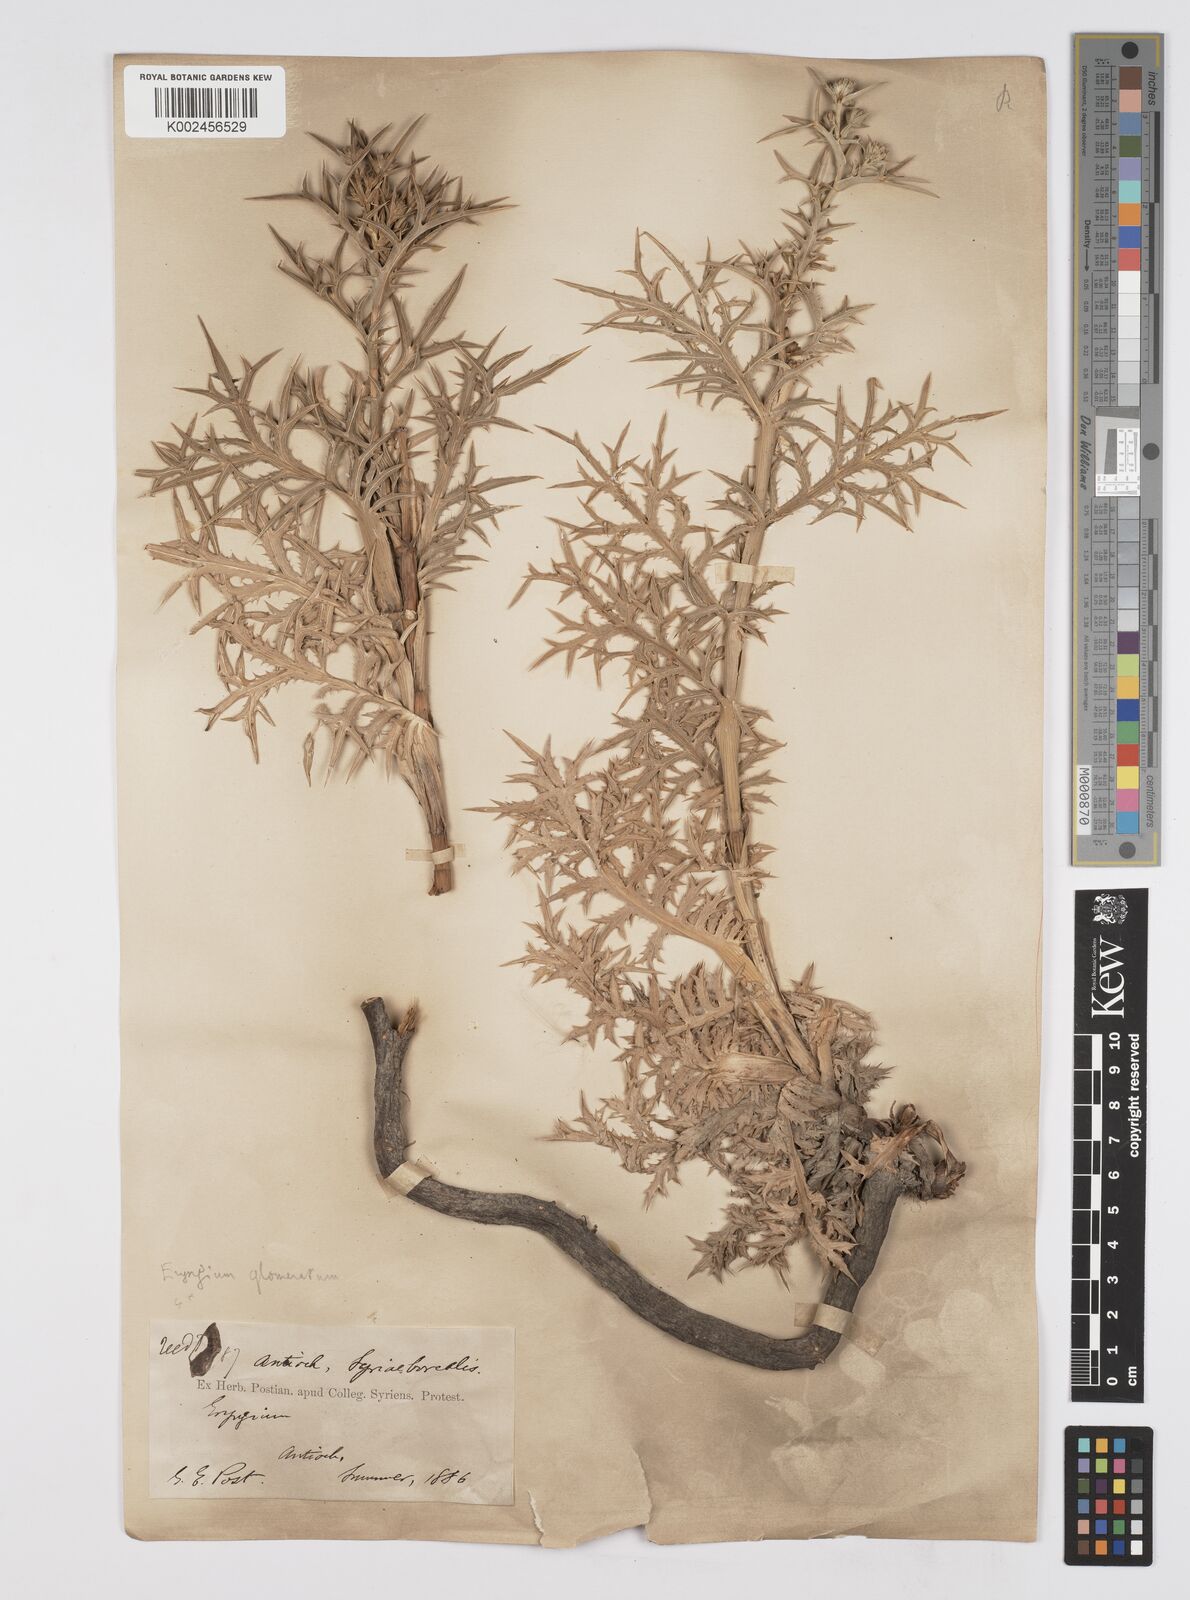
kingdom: Plantae
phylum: Tracheophyta
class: Magnoliopsida
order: Apiales
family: Apiaceae
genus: Eryngium
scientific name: Eryngium glomeratum
